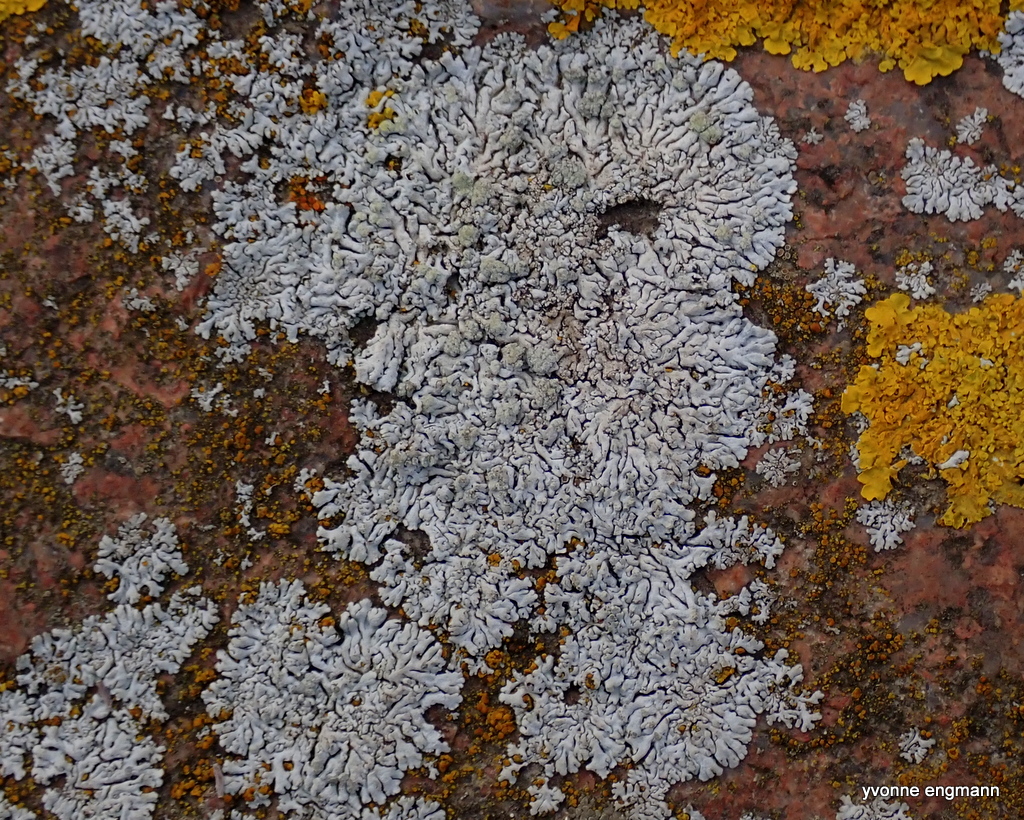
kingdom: Fungi
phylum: Ascomycota
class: Lecanoromycetes
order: Caliciales
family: Physciaceae
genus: Physcia
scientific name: Physcia caesia
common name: blågrå rosetlav
